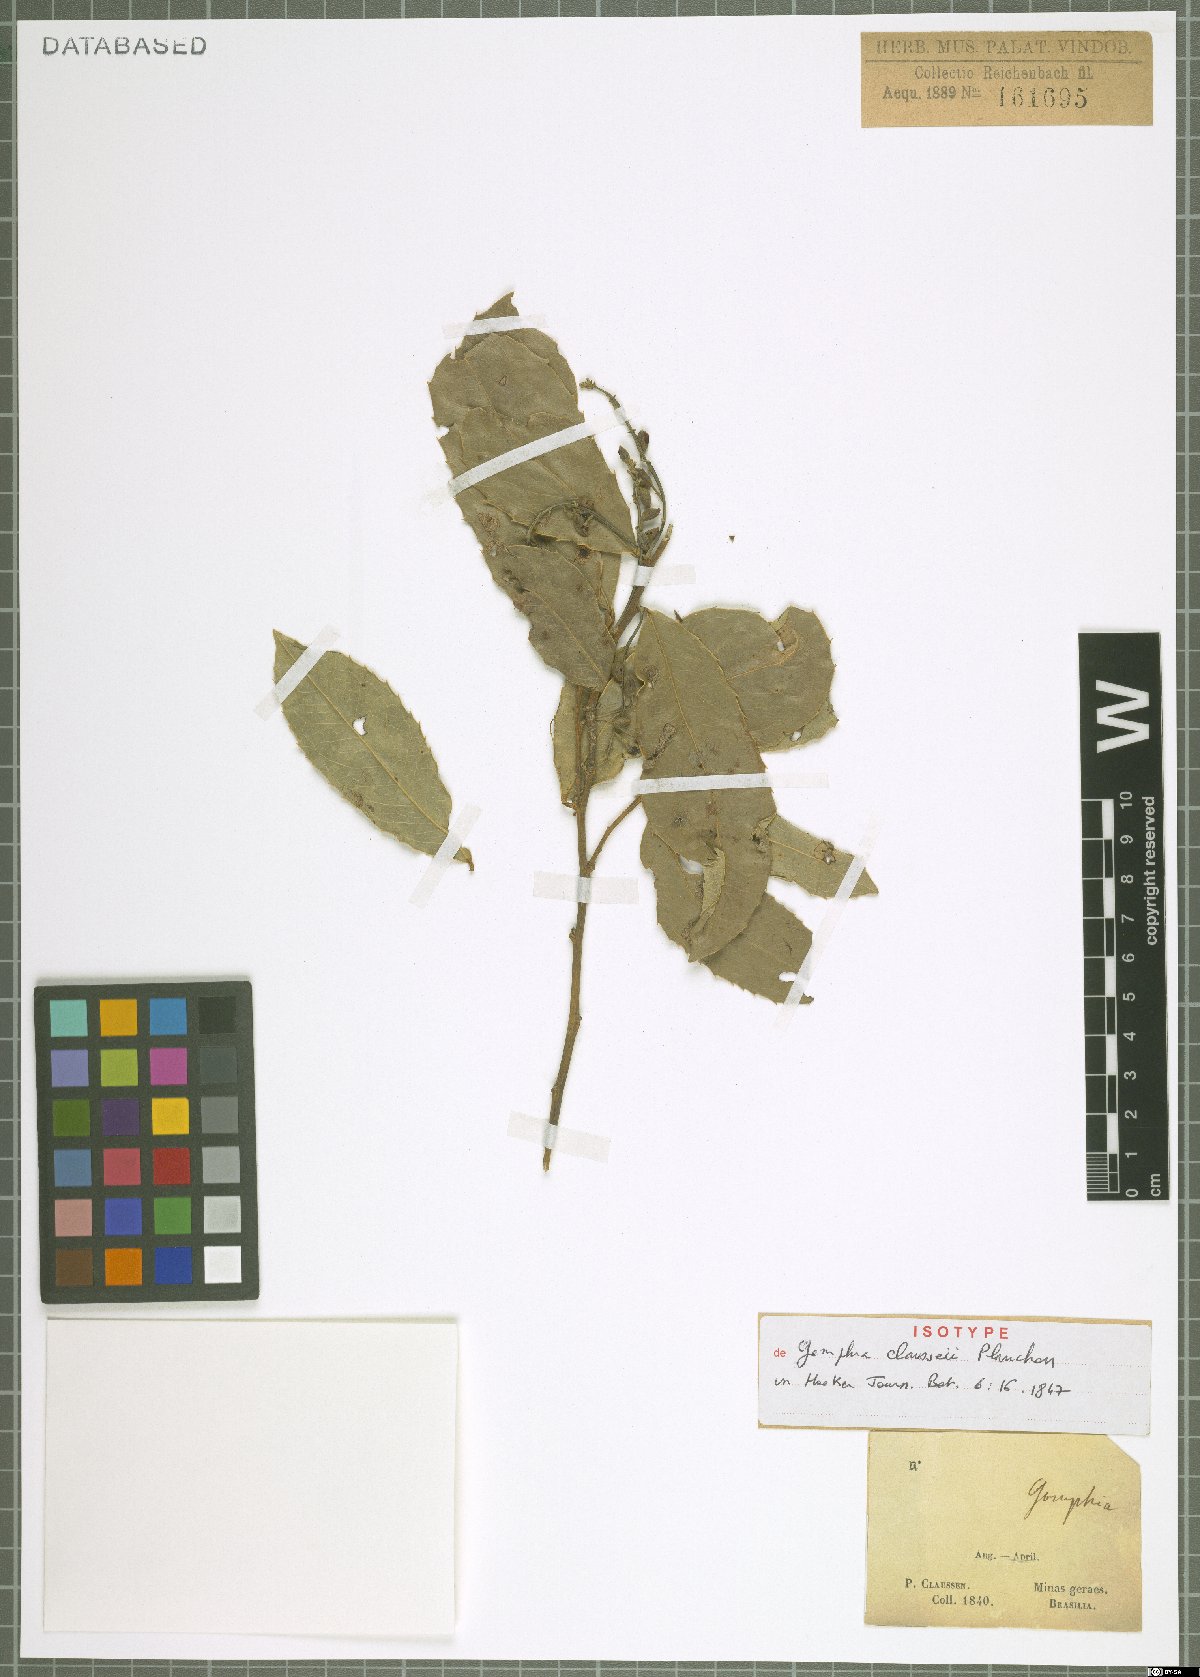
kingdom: Plantae
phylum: Tracheophyta
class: Magnoliopsida
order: Malpighiales
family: Ochnaceae
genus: Ouratea
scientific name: Ouratea floribunda
